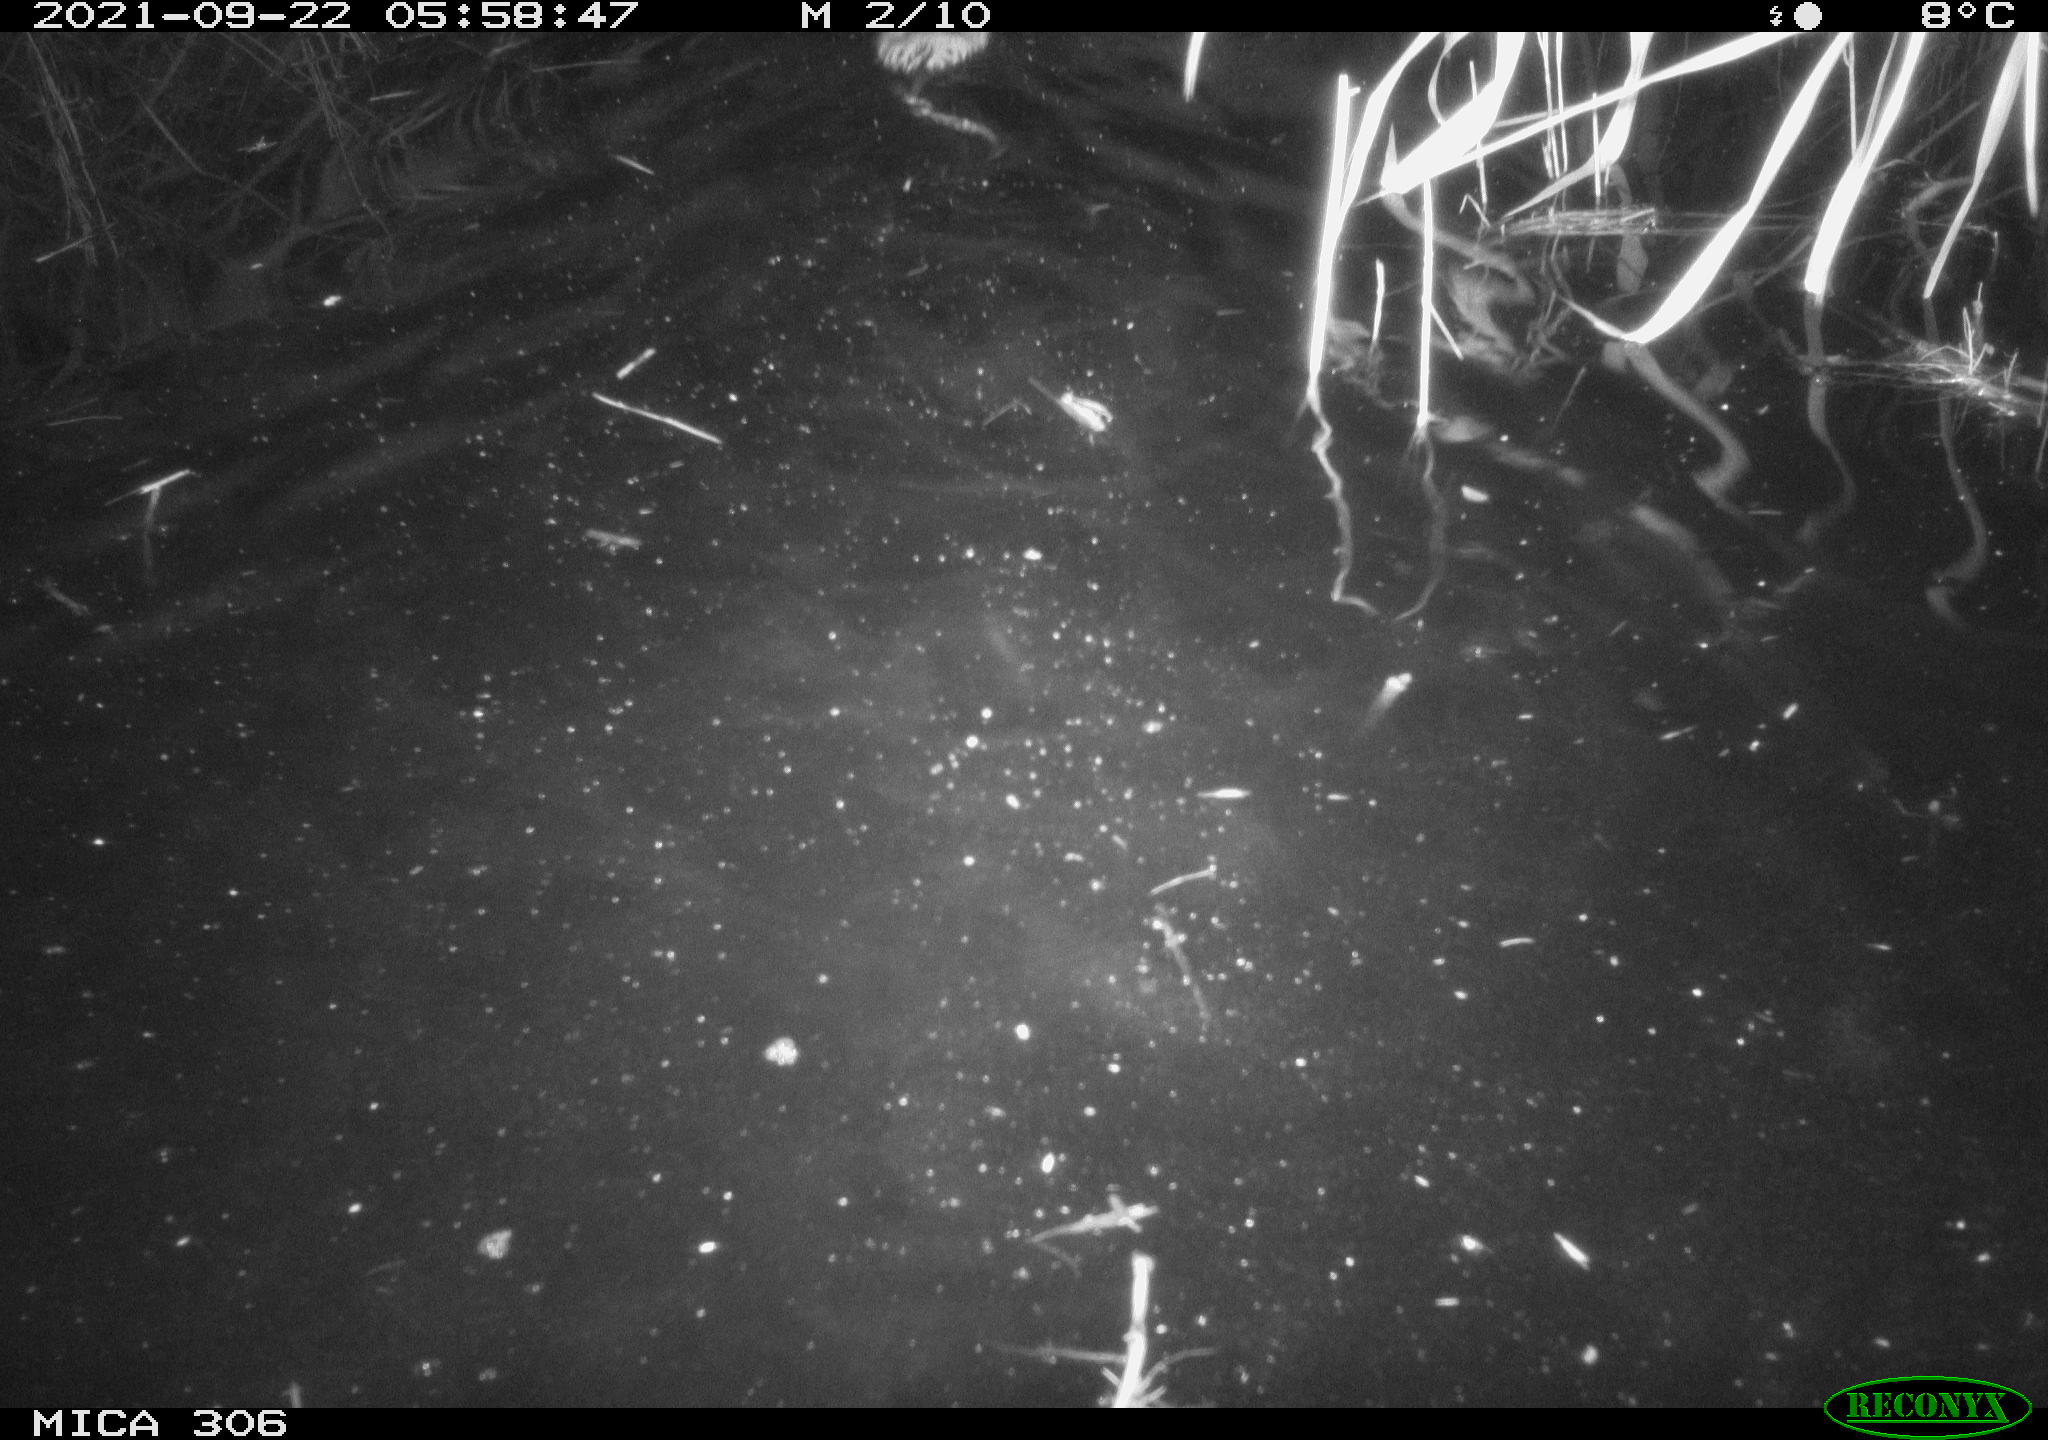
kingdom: Animalia
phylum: Chordata
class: Mammalia
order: Rodentia
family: Cricetidae
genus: Ondatra
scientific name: Ondatra zibethicus
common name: Muskrat
